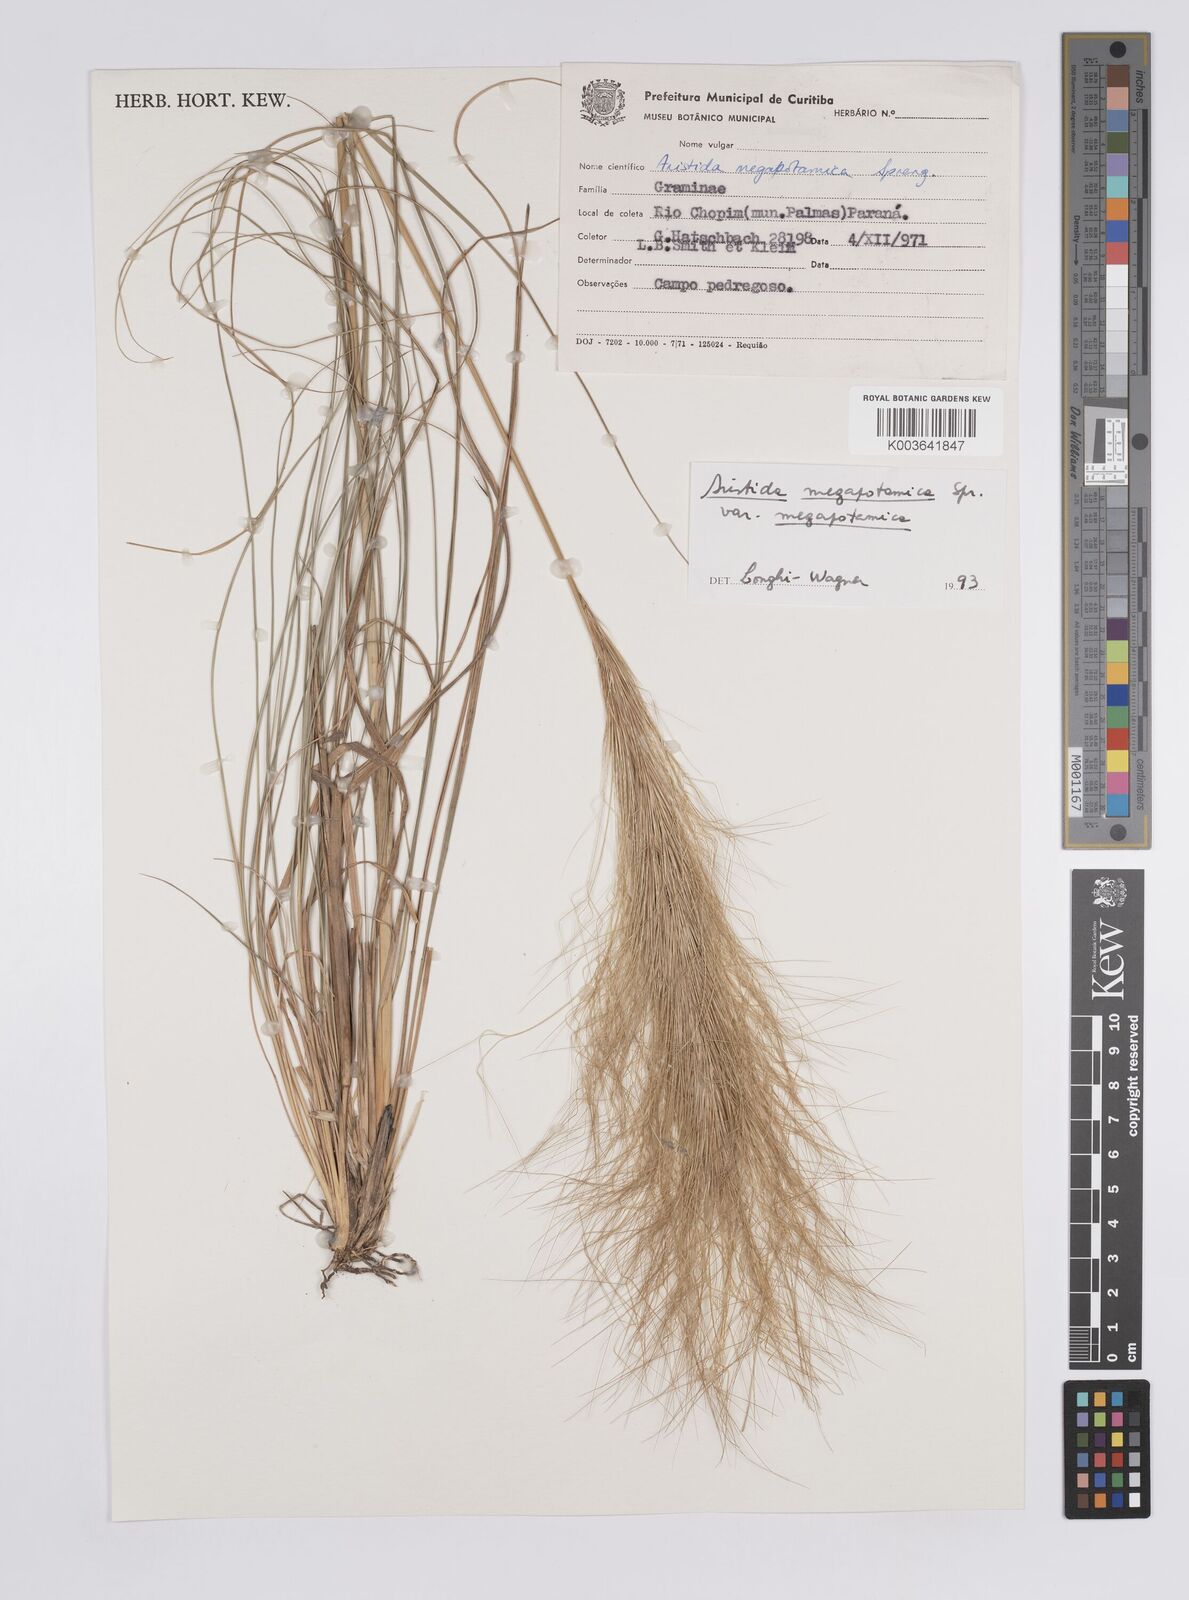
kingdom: Plantae
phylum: Tracheophyta
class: Liliopsida
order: Poales
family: Poaceae
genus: Aristida
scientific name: Aristida megapotamica
